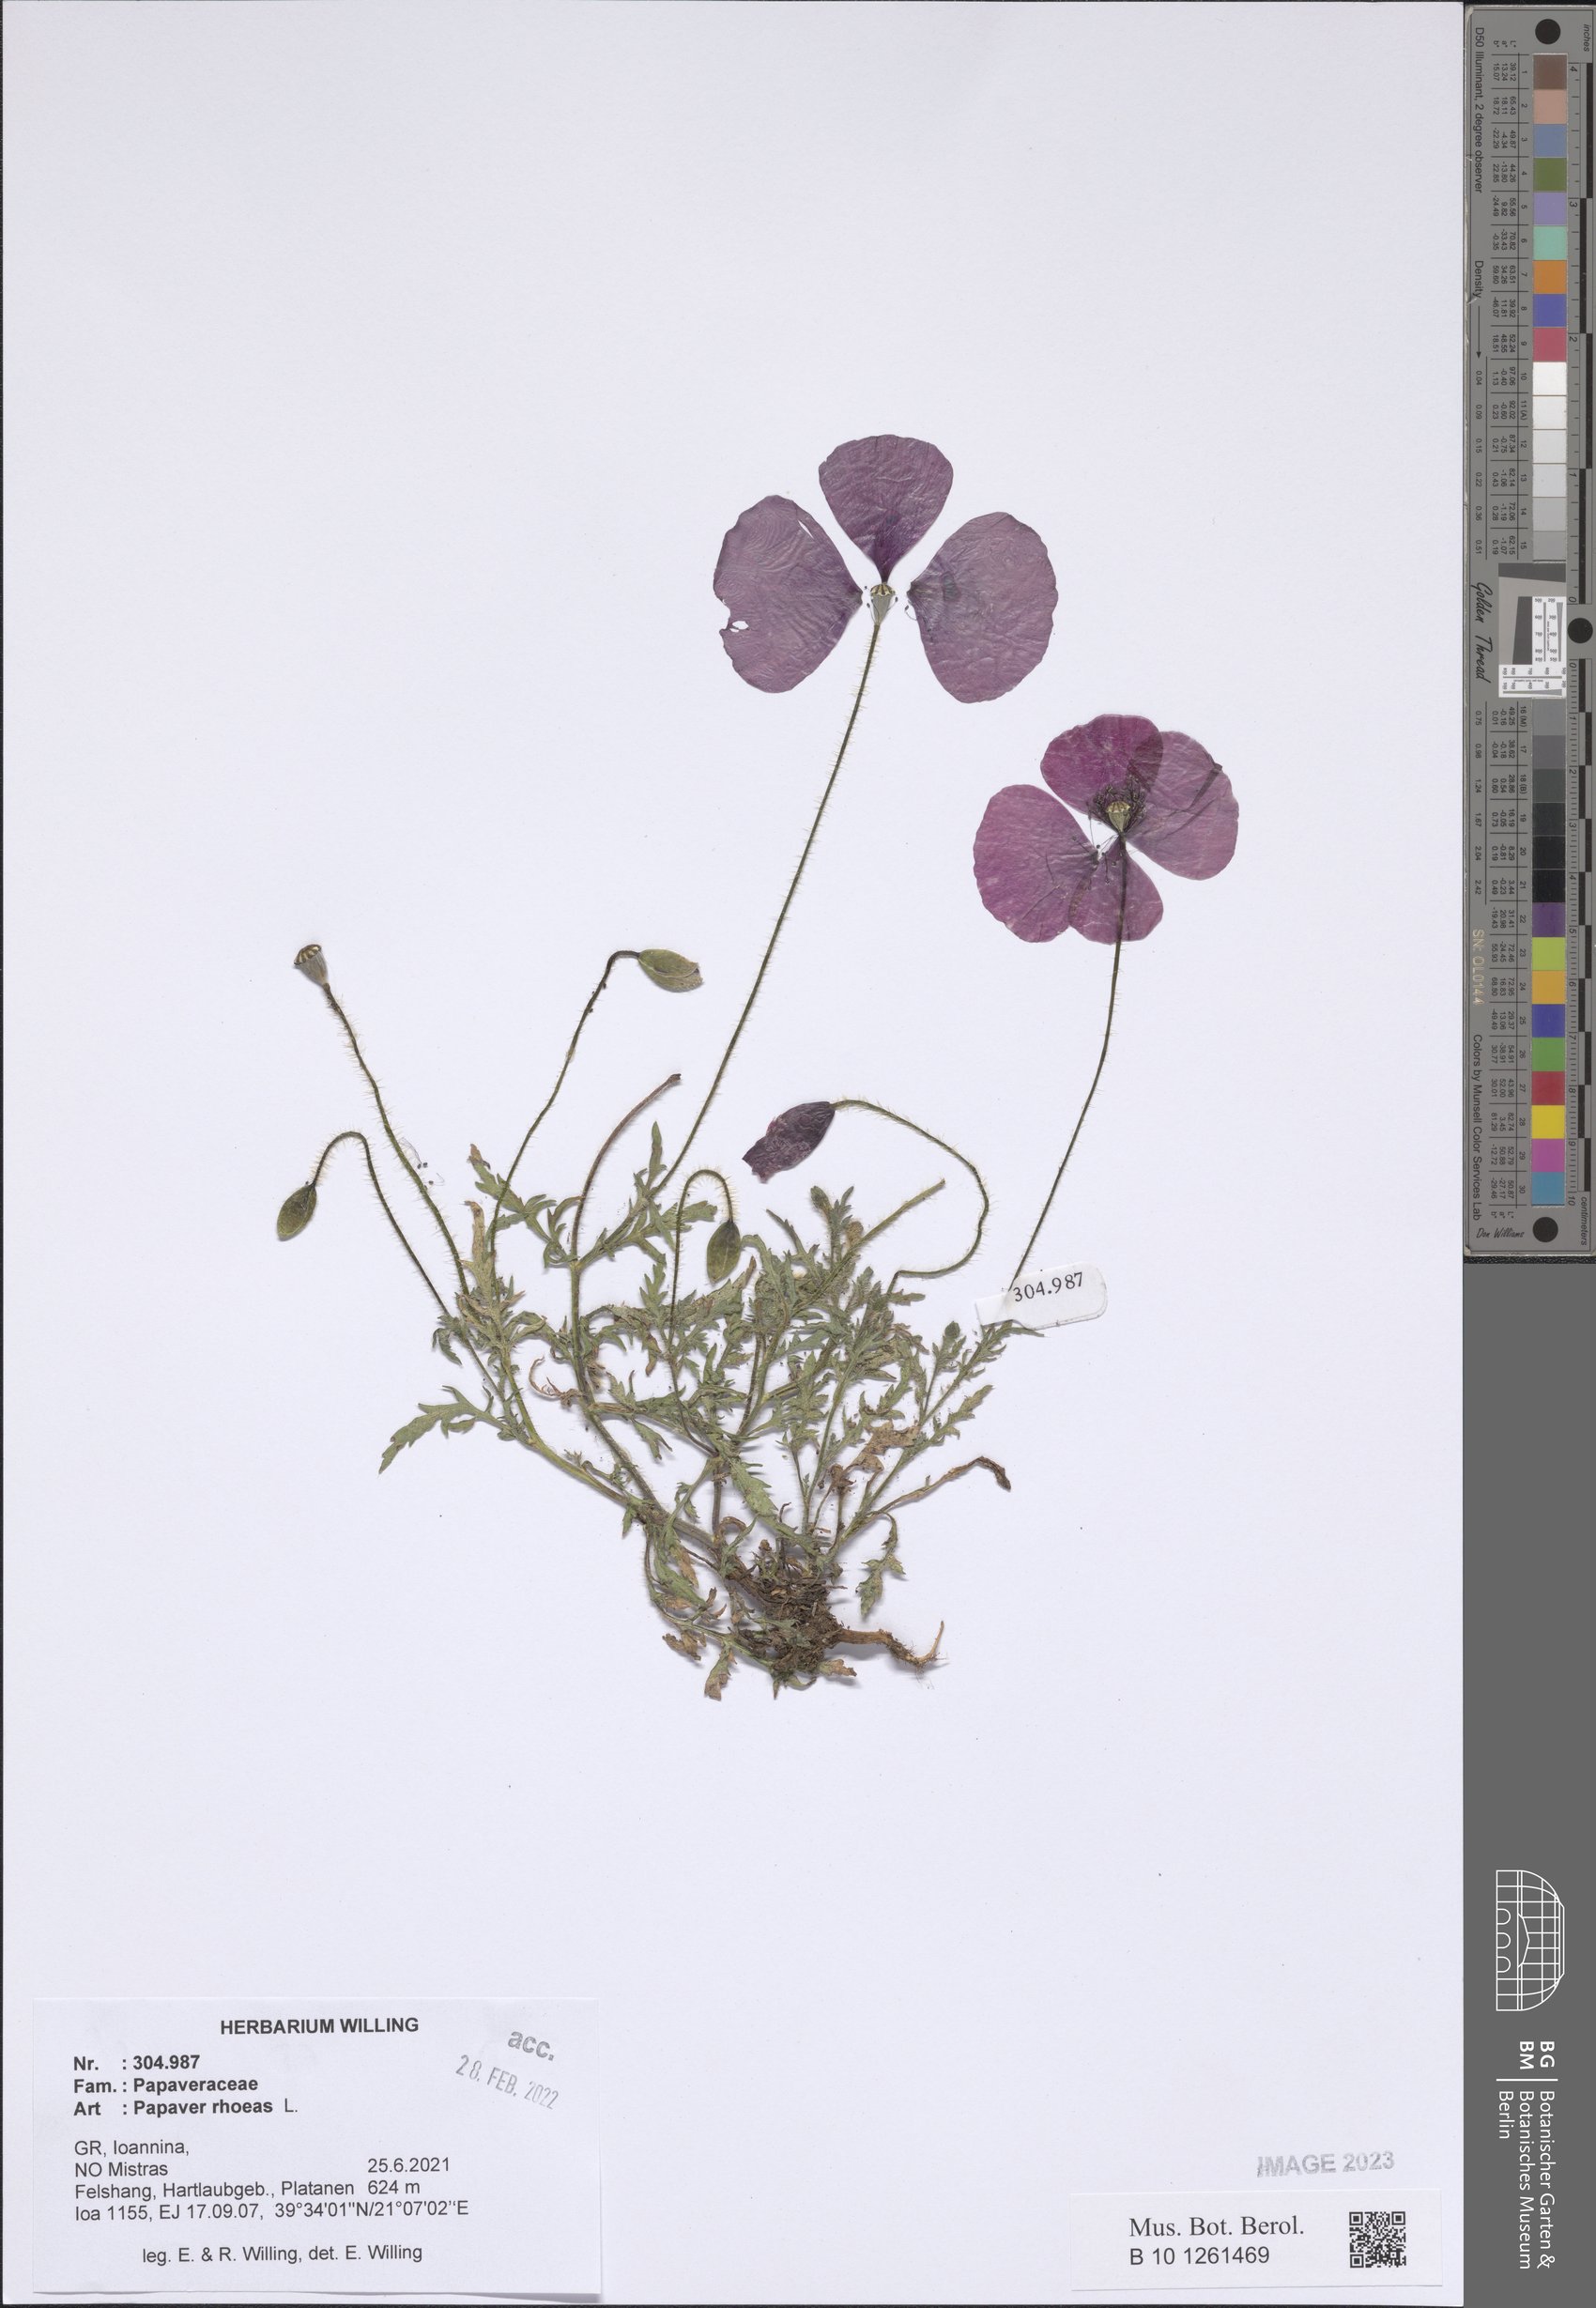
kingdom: Plantae
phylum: Tracheophyta
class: Magnoliopsida
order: Ranunculales
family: Papaveraceae
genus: Papaver
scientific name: Papaver rhoeas
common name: Corn poppy
